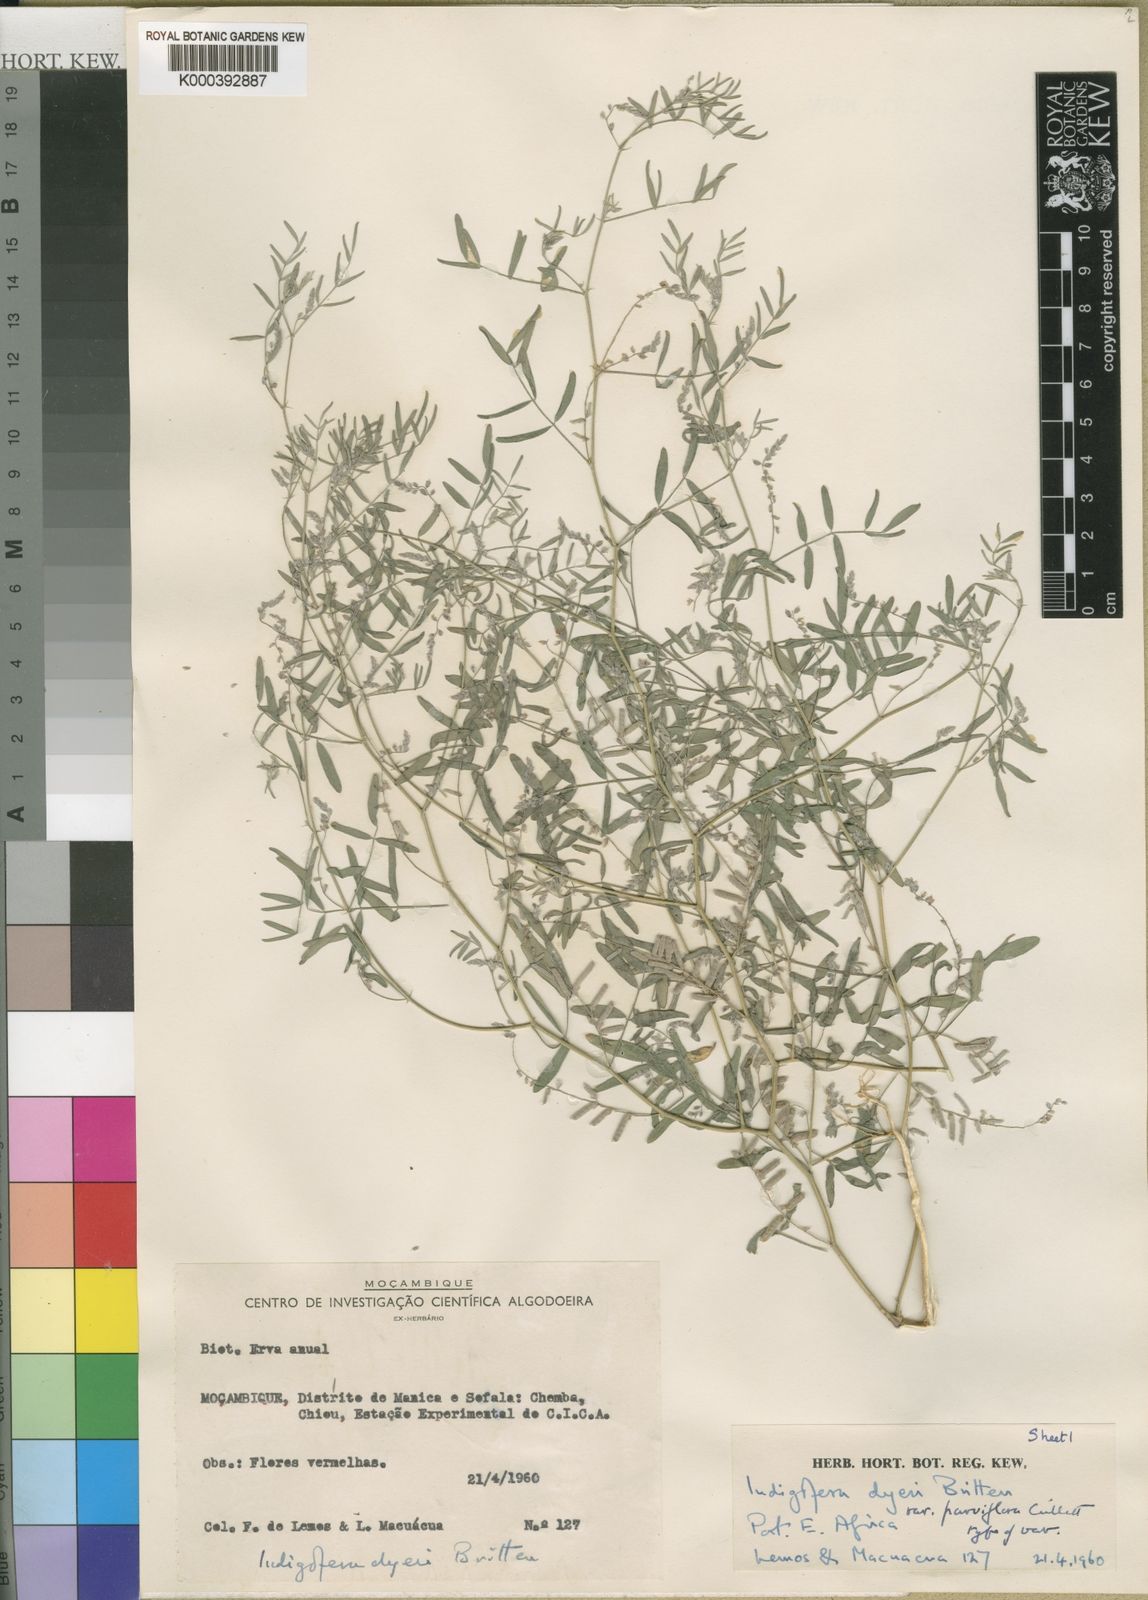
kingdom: Plantae
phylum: Tracheophyta
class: Magnoliopsida
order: Fabales
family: Fabaceae
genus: Indigofera
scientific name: Indigofera dyeri
